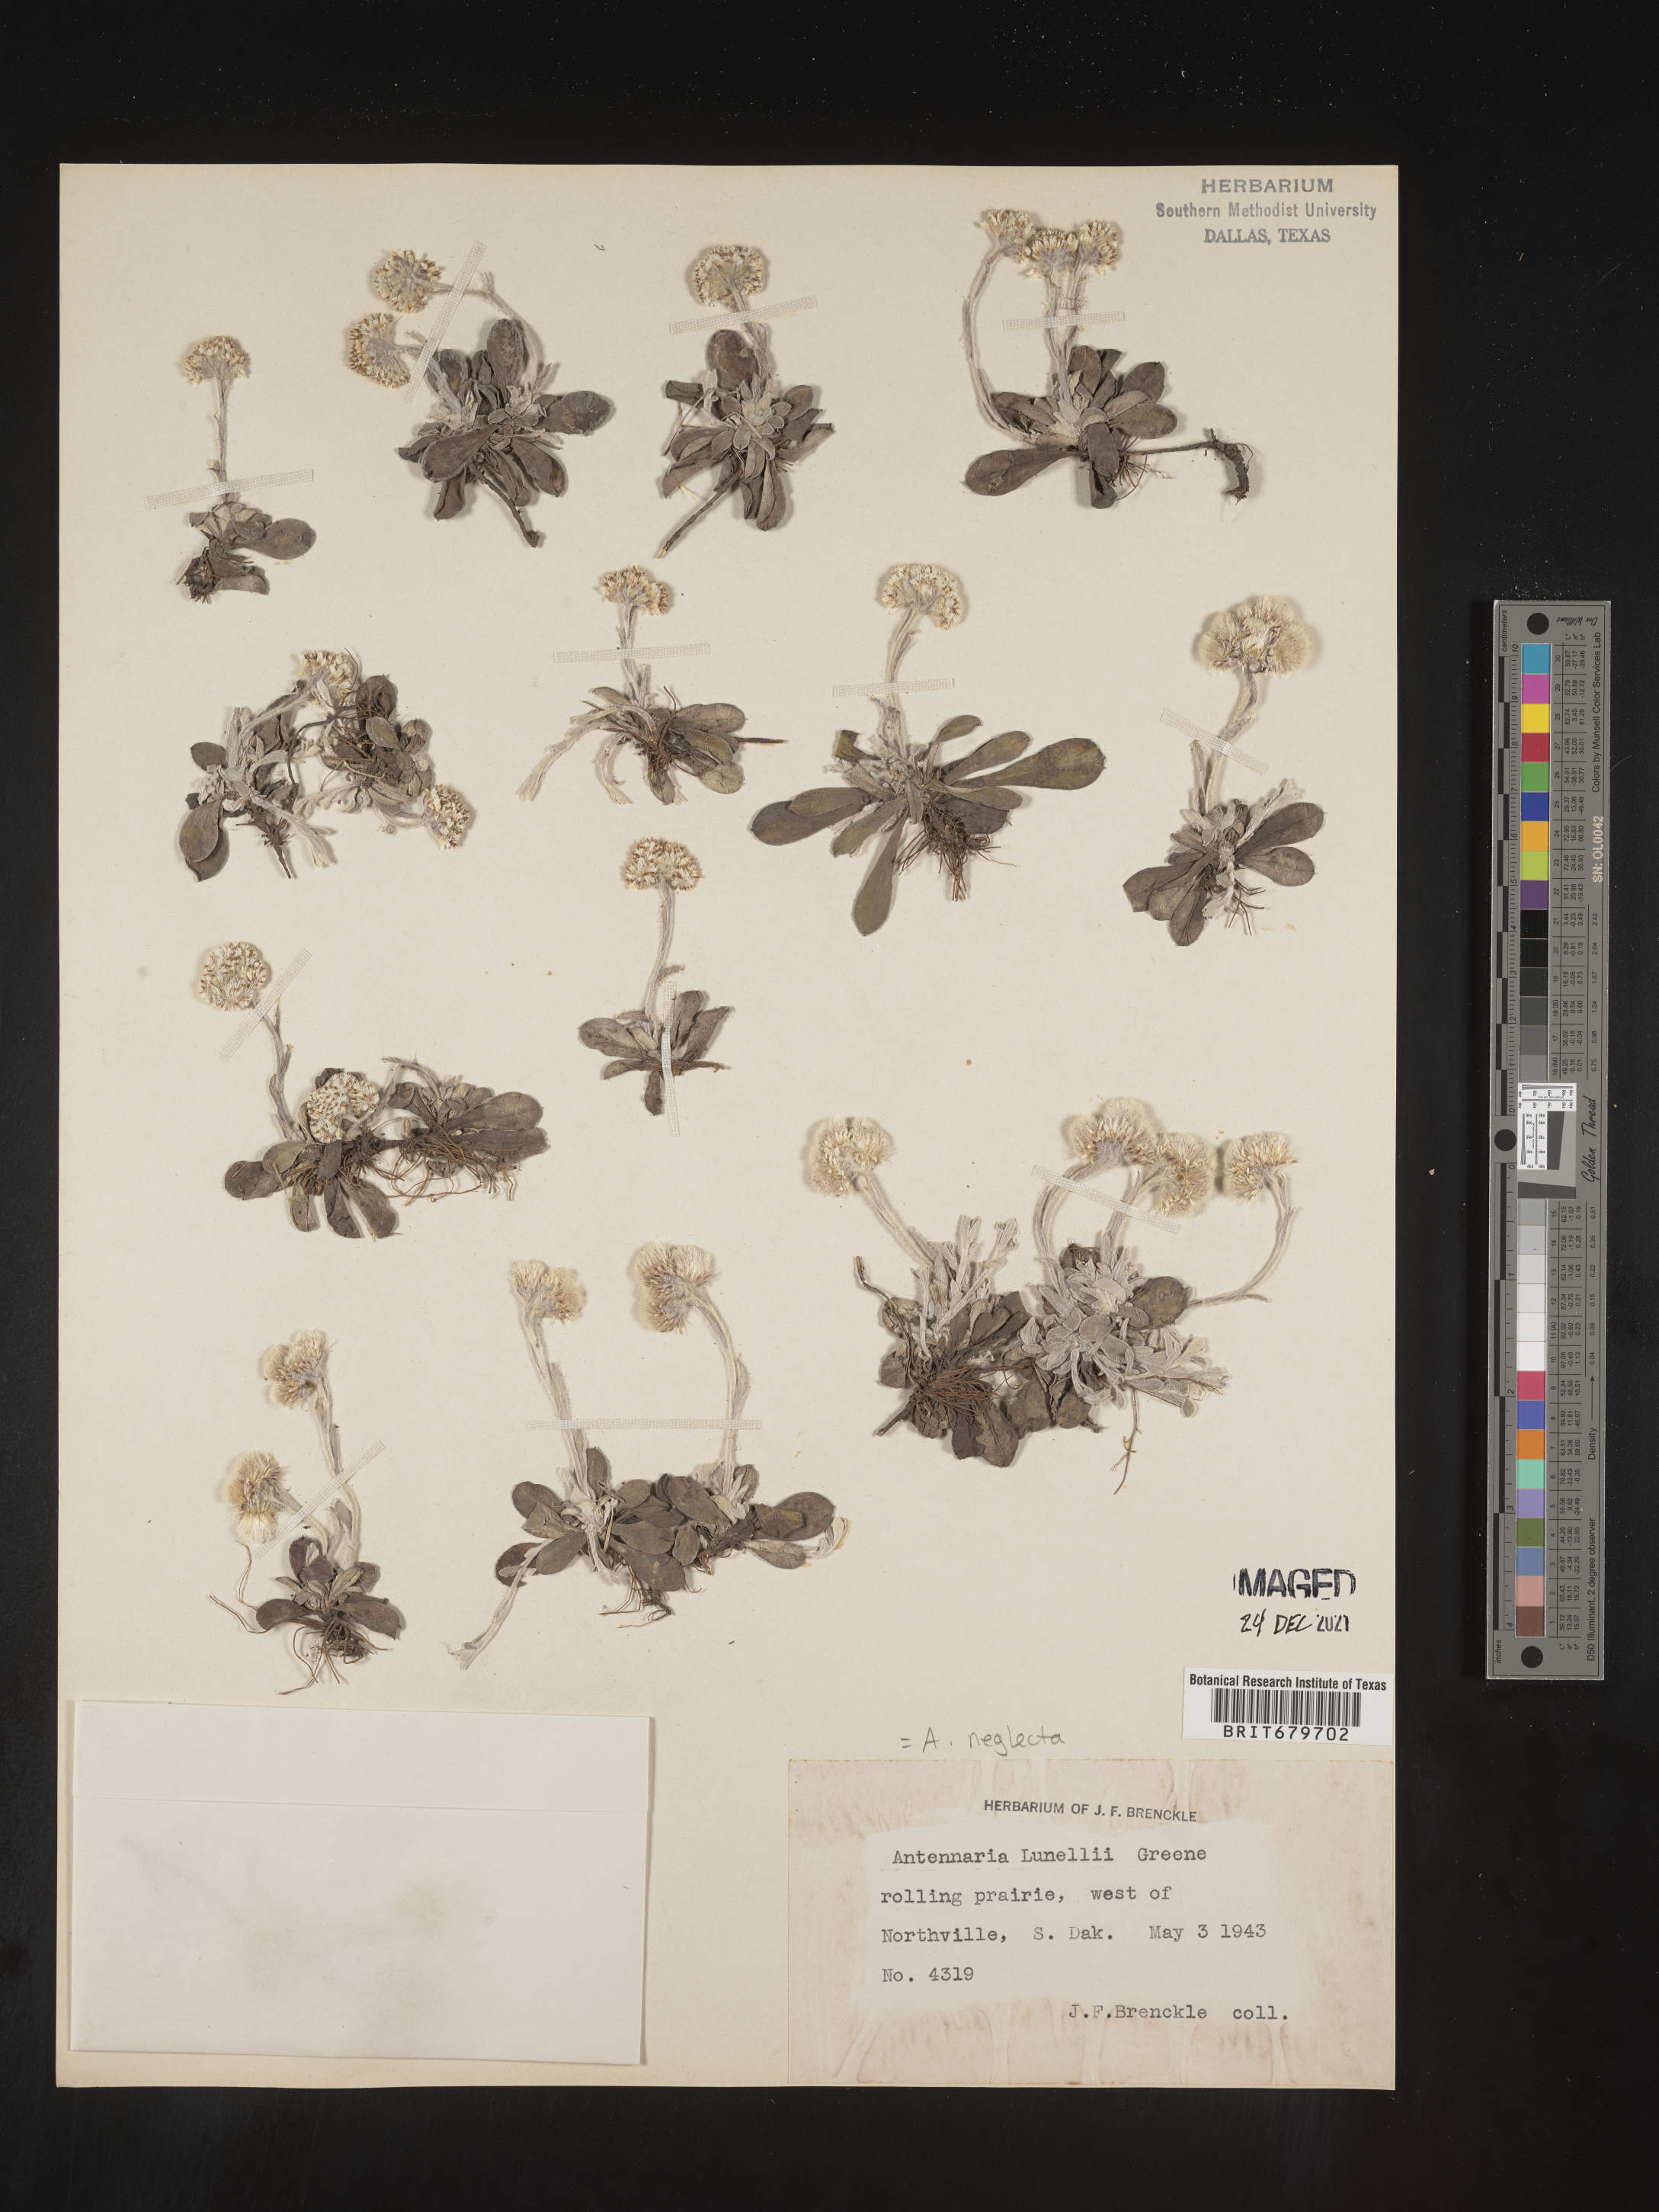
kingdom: Plantae
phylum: Tracheophyta
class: Magnoliopsida
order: Asterales
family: Asteraceae
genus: Antennaria
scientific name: Antennaria neglecta
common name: Field pussytoes
